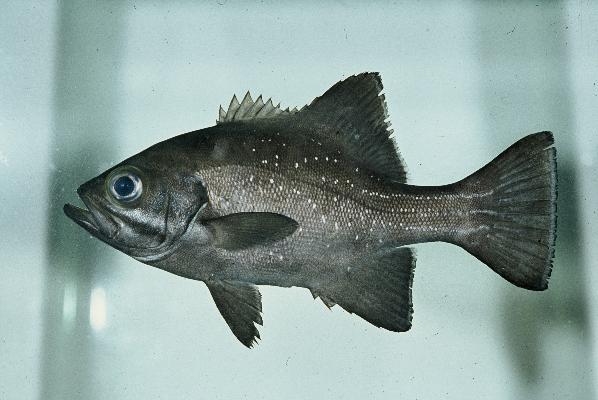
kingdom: Animalia
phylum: Chordata
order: Perciformes
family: Dinopercidae
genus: Dinoperca
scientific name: Dinoperca petersi
